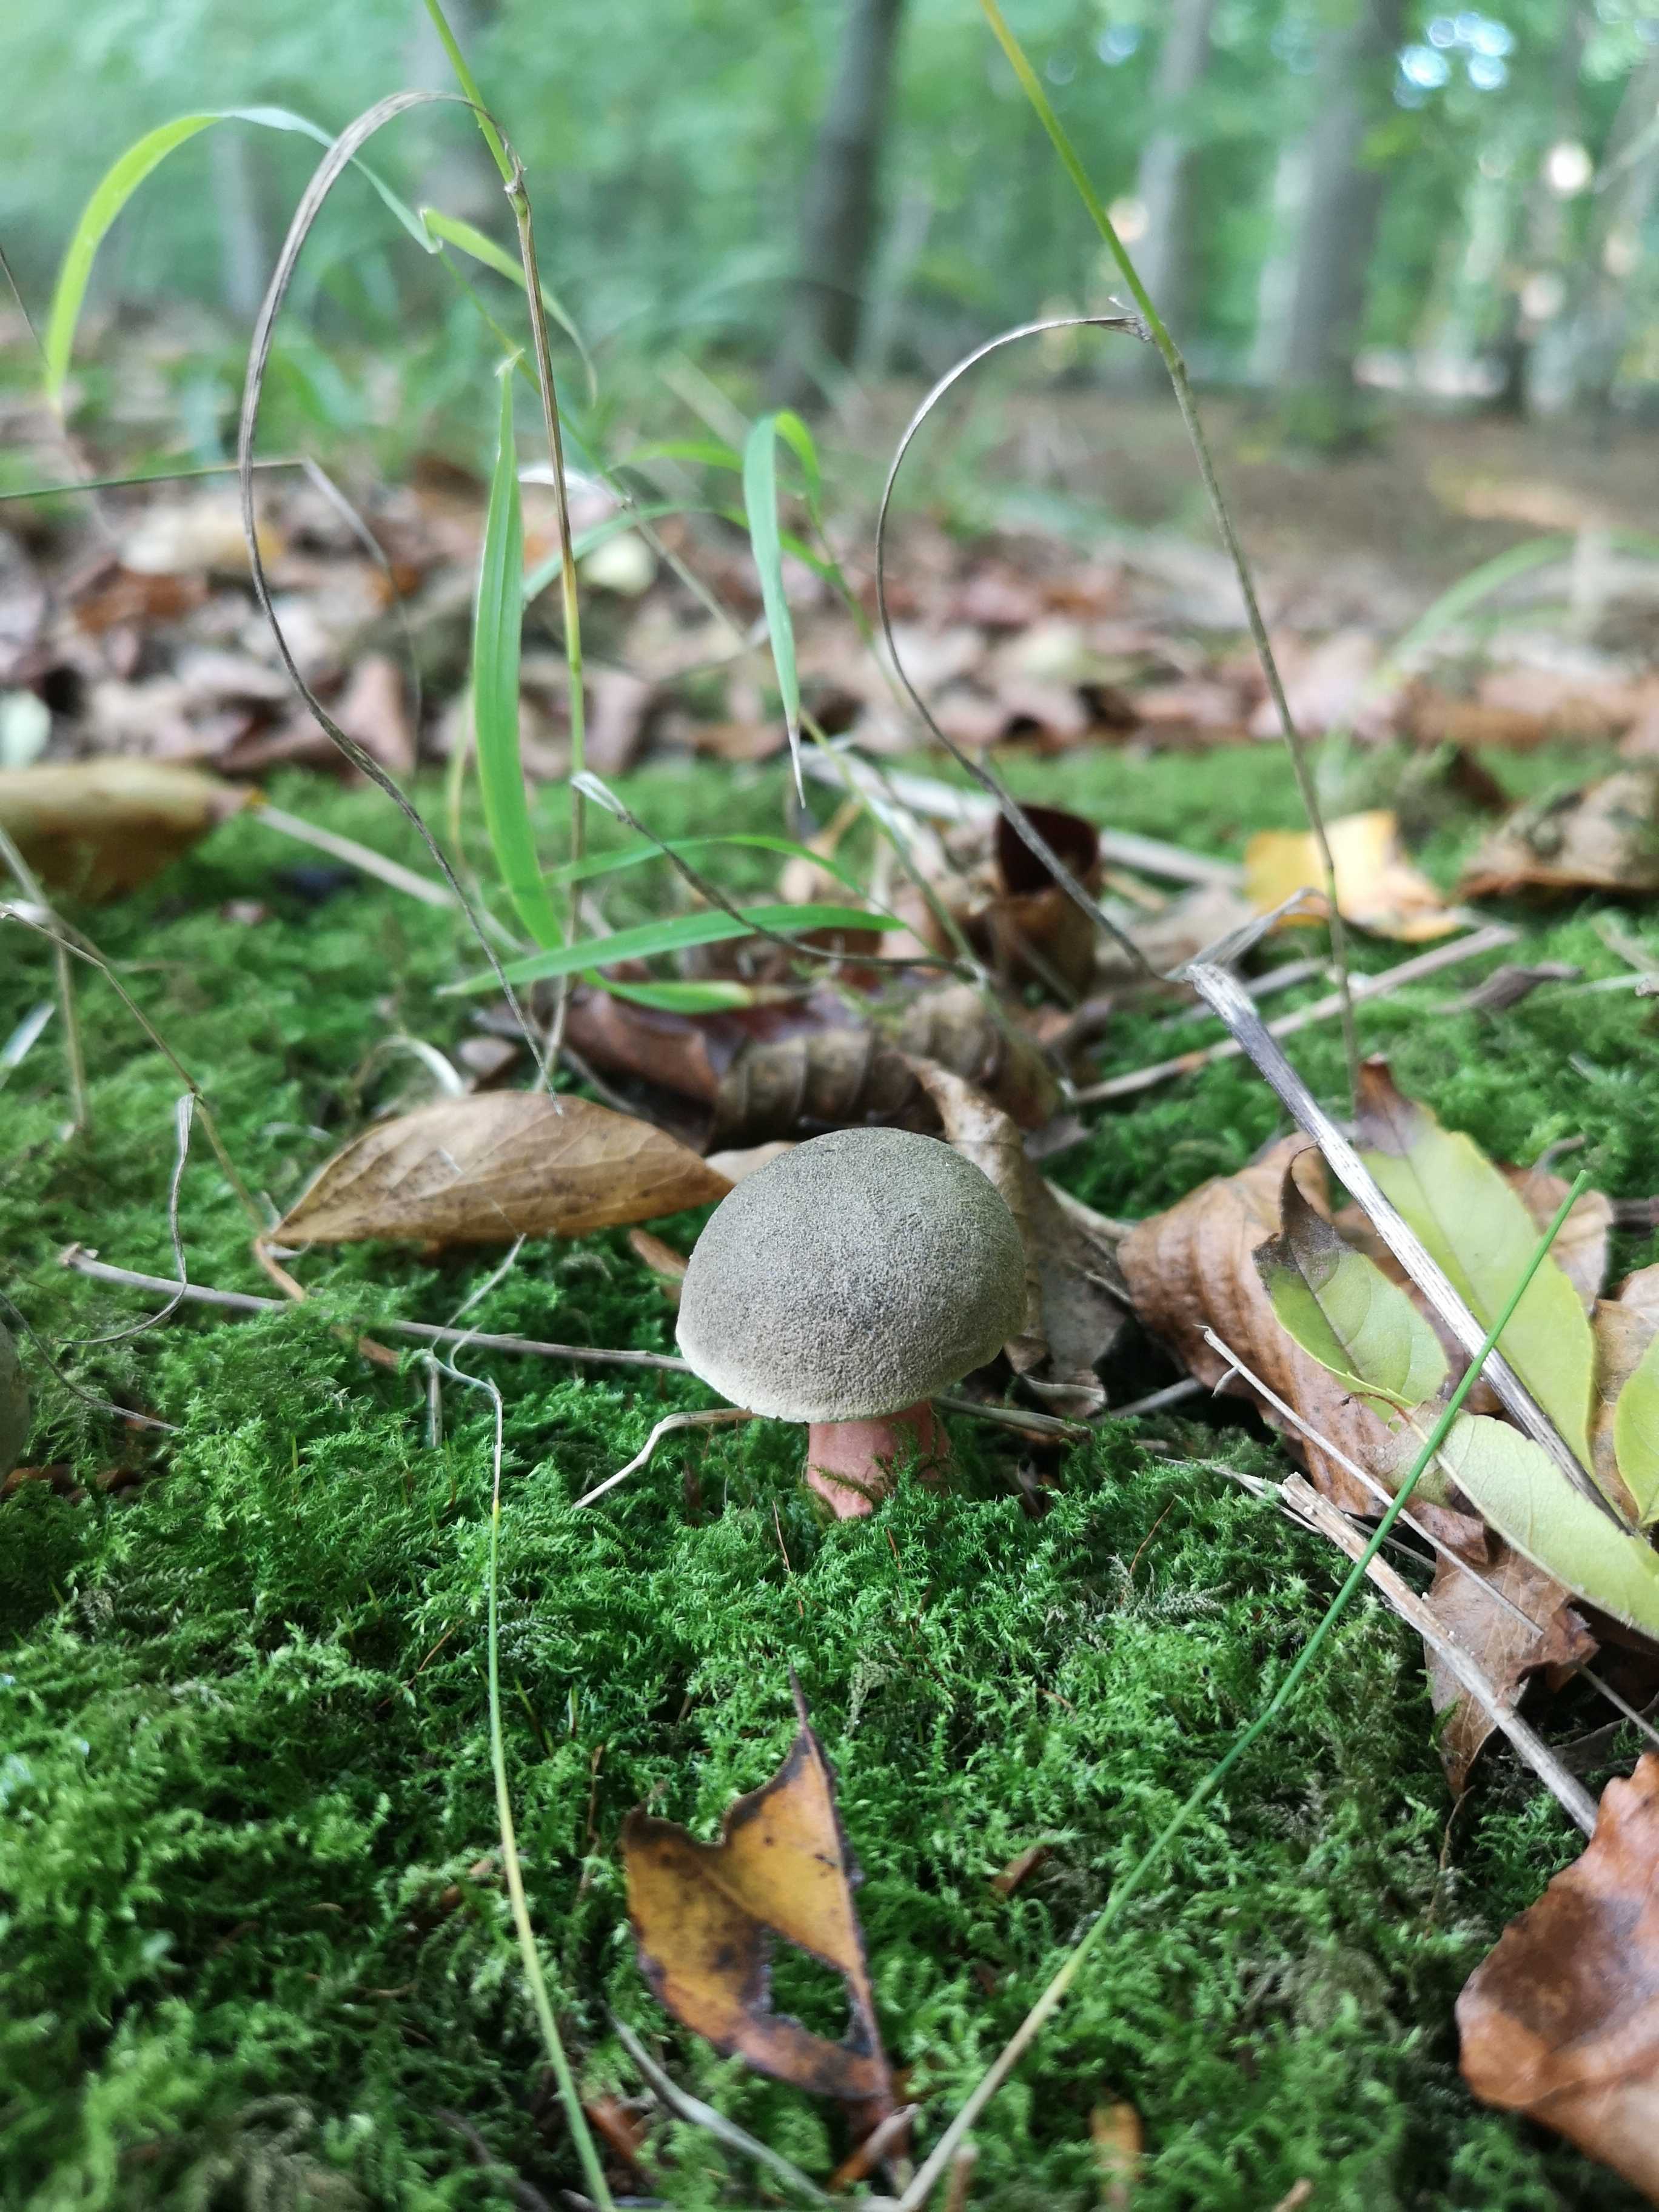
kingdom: Fungi
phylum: Basidiomycota
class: Agaricomycetes
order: Boletales
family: Boletaceae
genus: Xerocomellus
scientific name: Xerocomellus
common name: dværgrørhat
